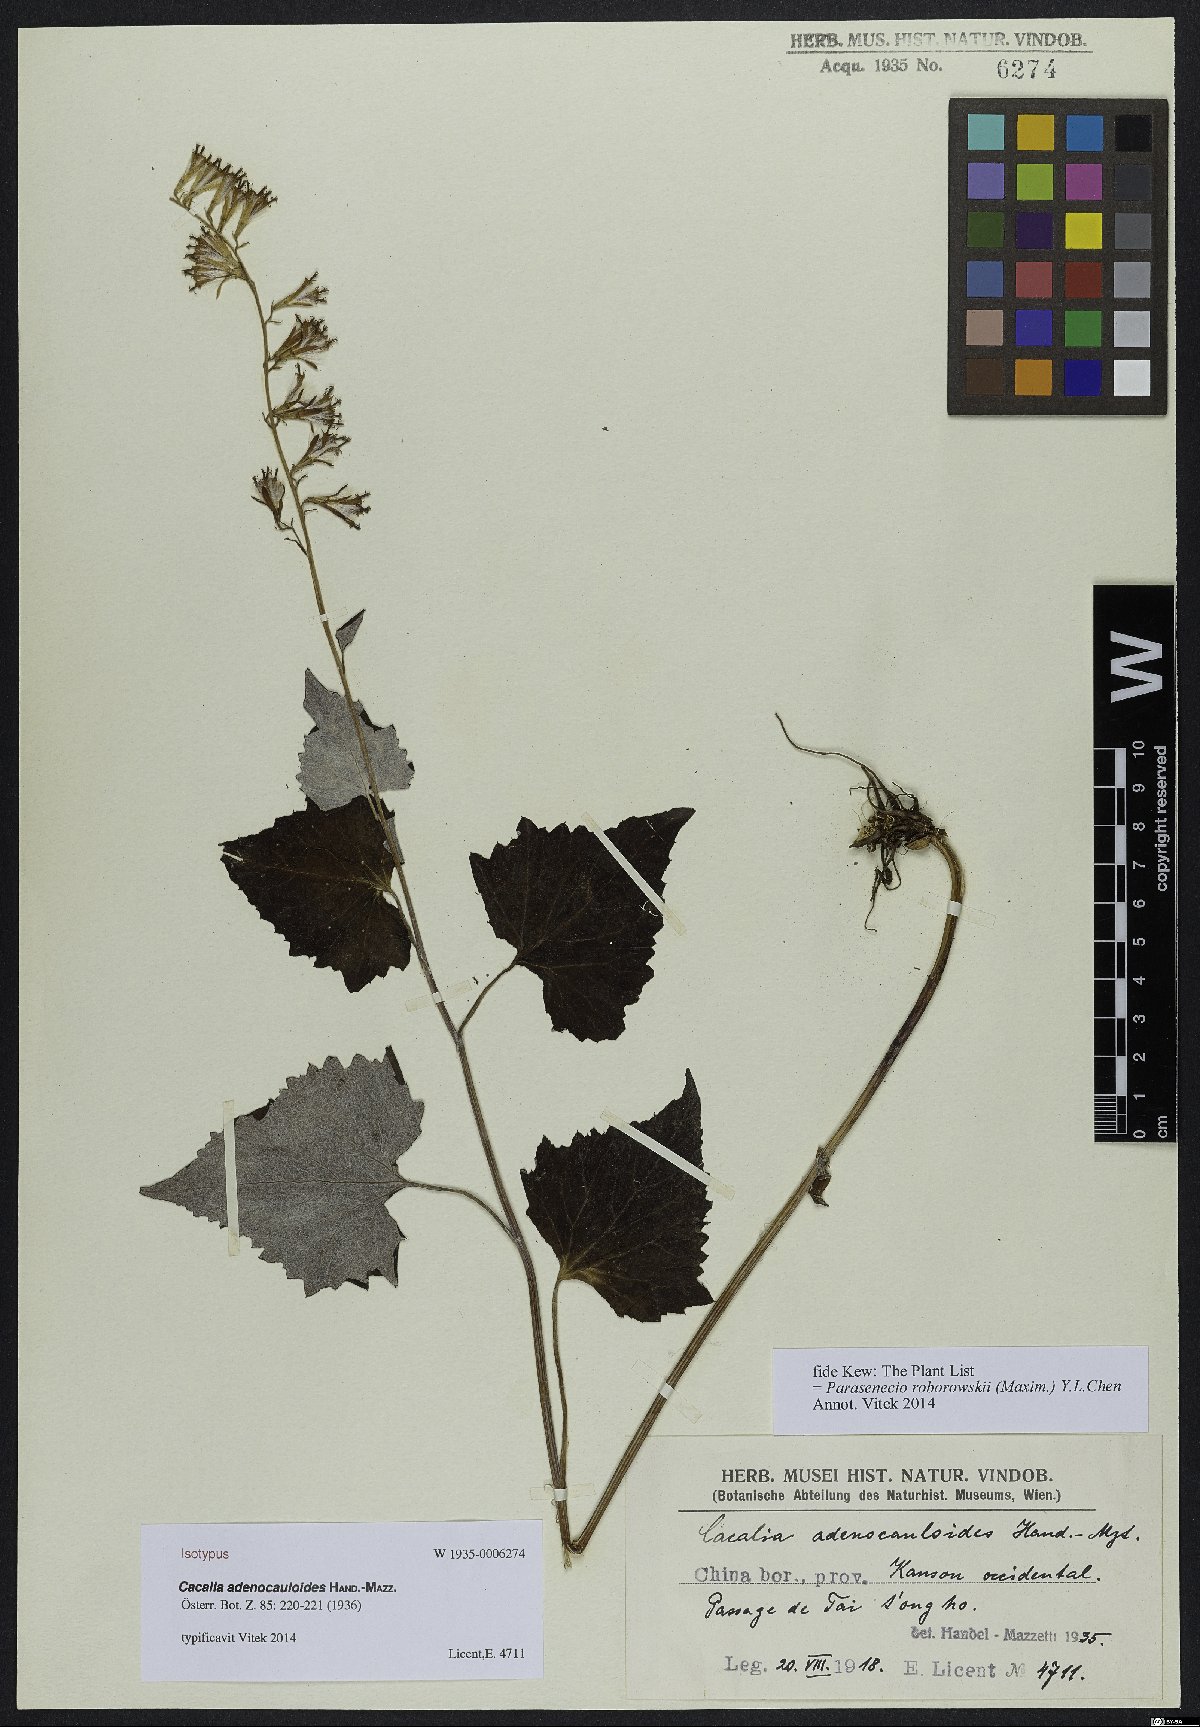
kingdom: Plantae
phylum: Tracheophyta
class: Magnoliopsida
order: Asterales
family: Asteraceae
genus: Parasenecio
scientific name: Parasenecio roborowskii
